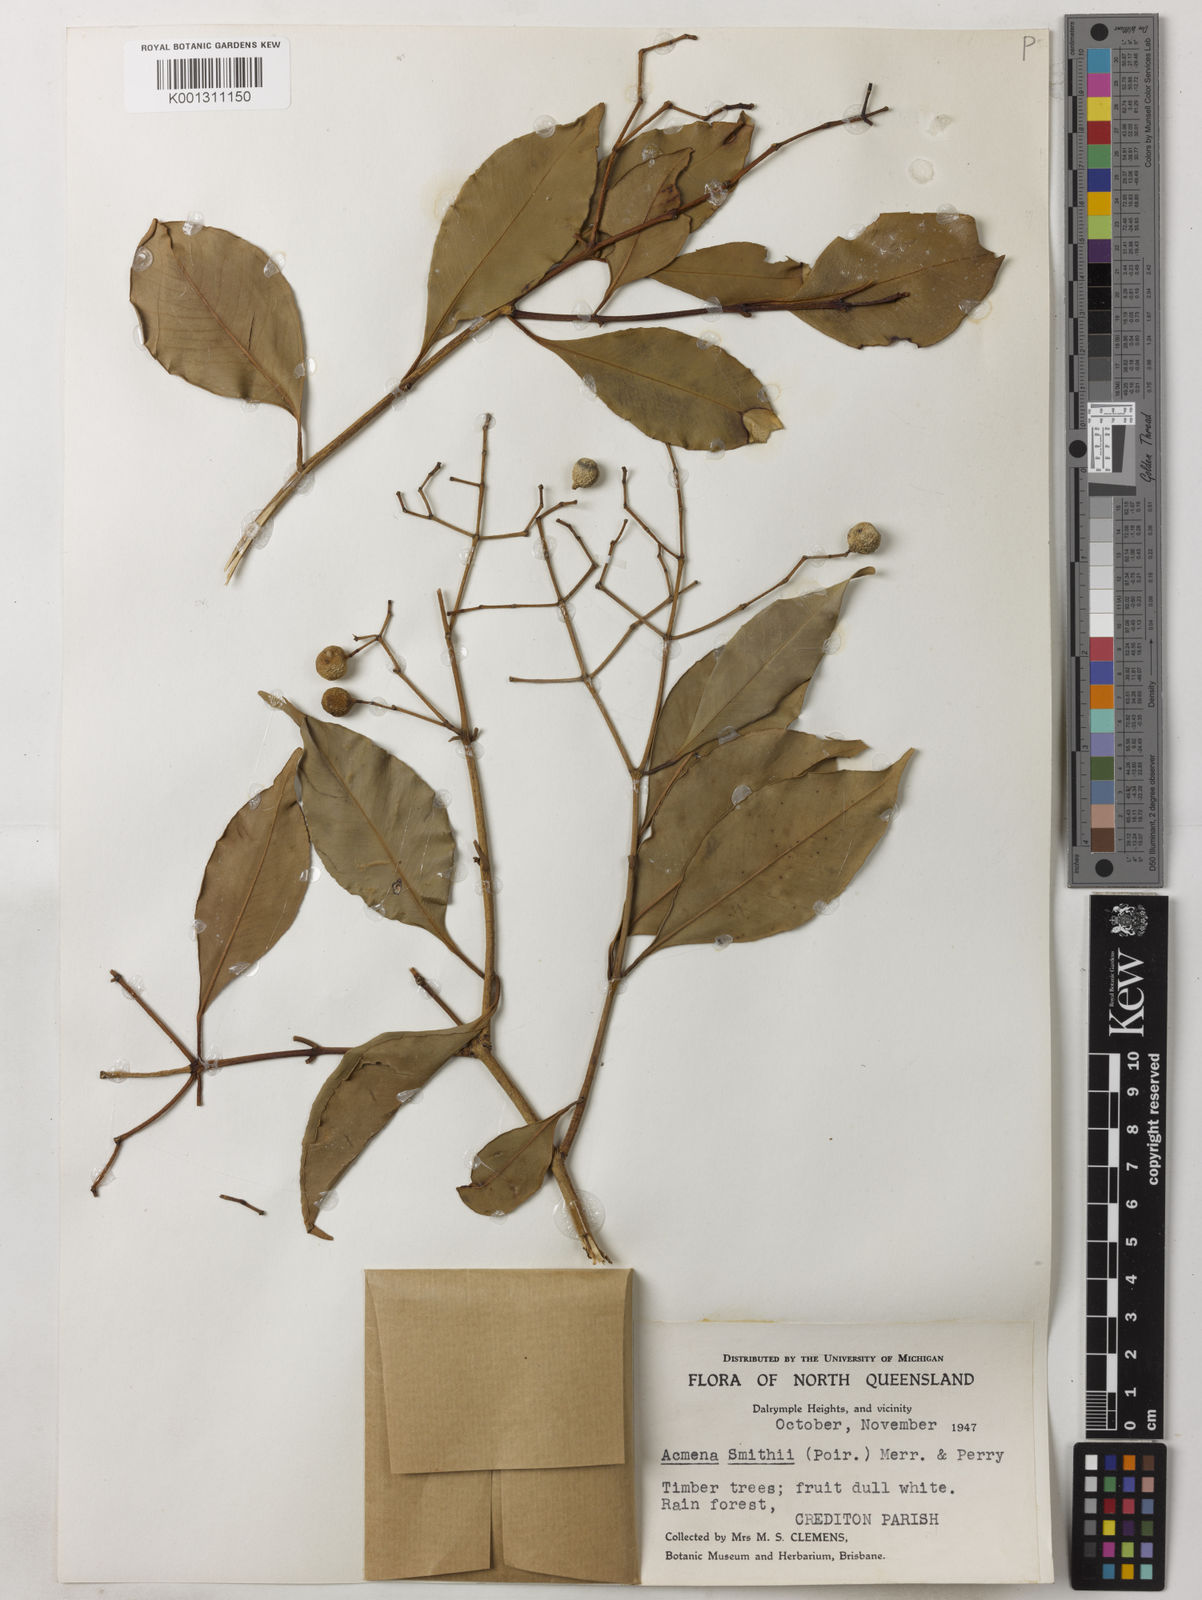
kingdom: Plantae
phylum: Tracheophyta
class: Magnoliopsida
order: Myrtales
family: Myrtaceae
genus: Syzygium
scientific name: Syzygium smithii
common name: Lilly-pilly
